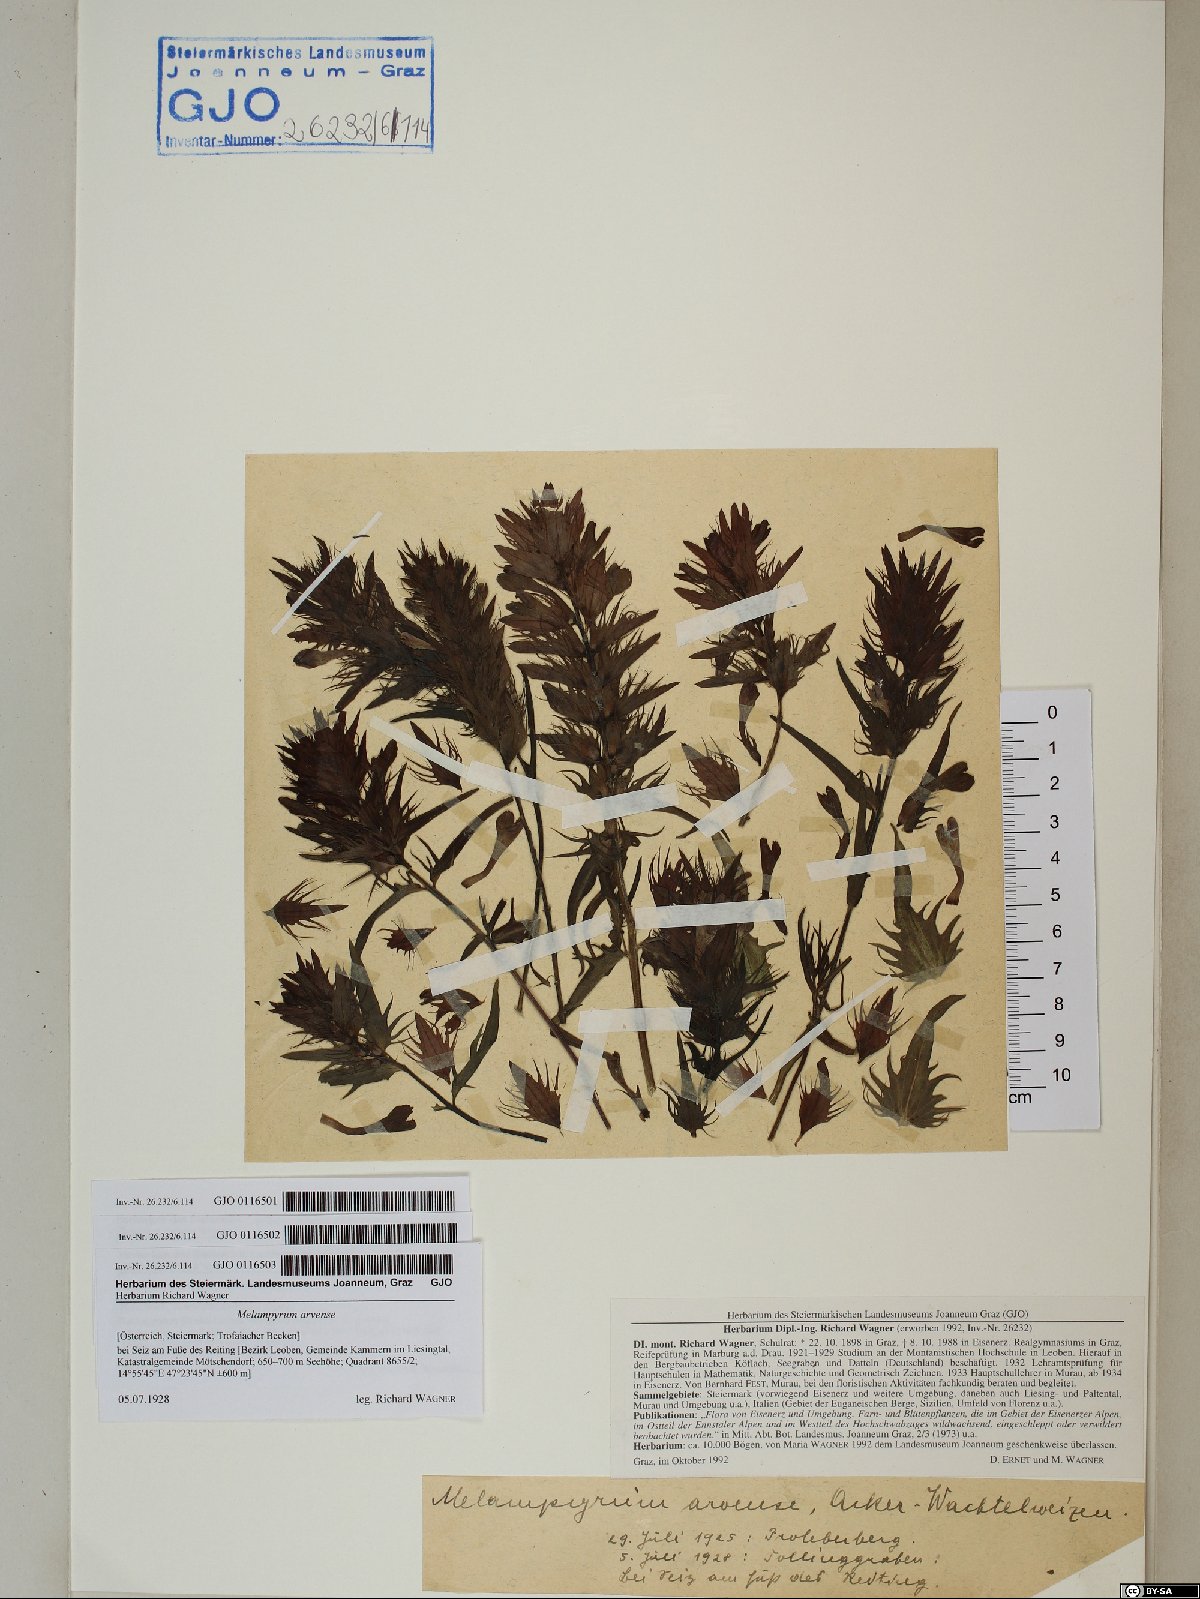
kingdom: Plantae
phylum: Tracheophyta
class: Magnoliopsida
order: Lamiales
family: Orobanchaceae
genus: Melampyrum
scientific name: Melampyrum arvense
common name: Field cow-wheat
